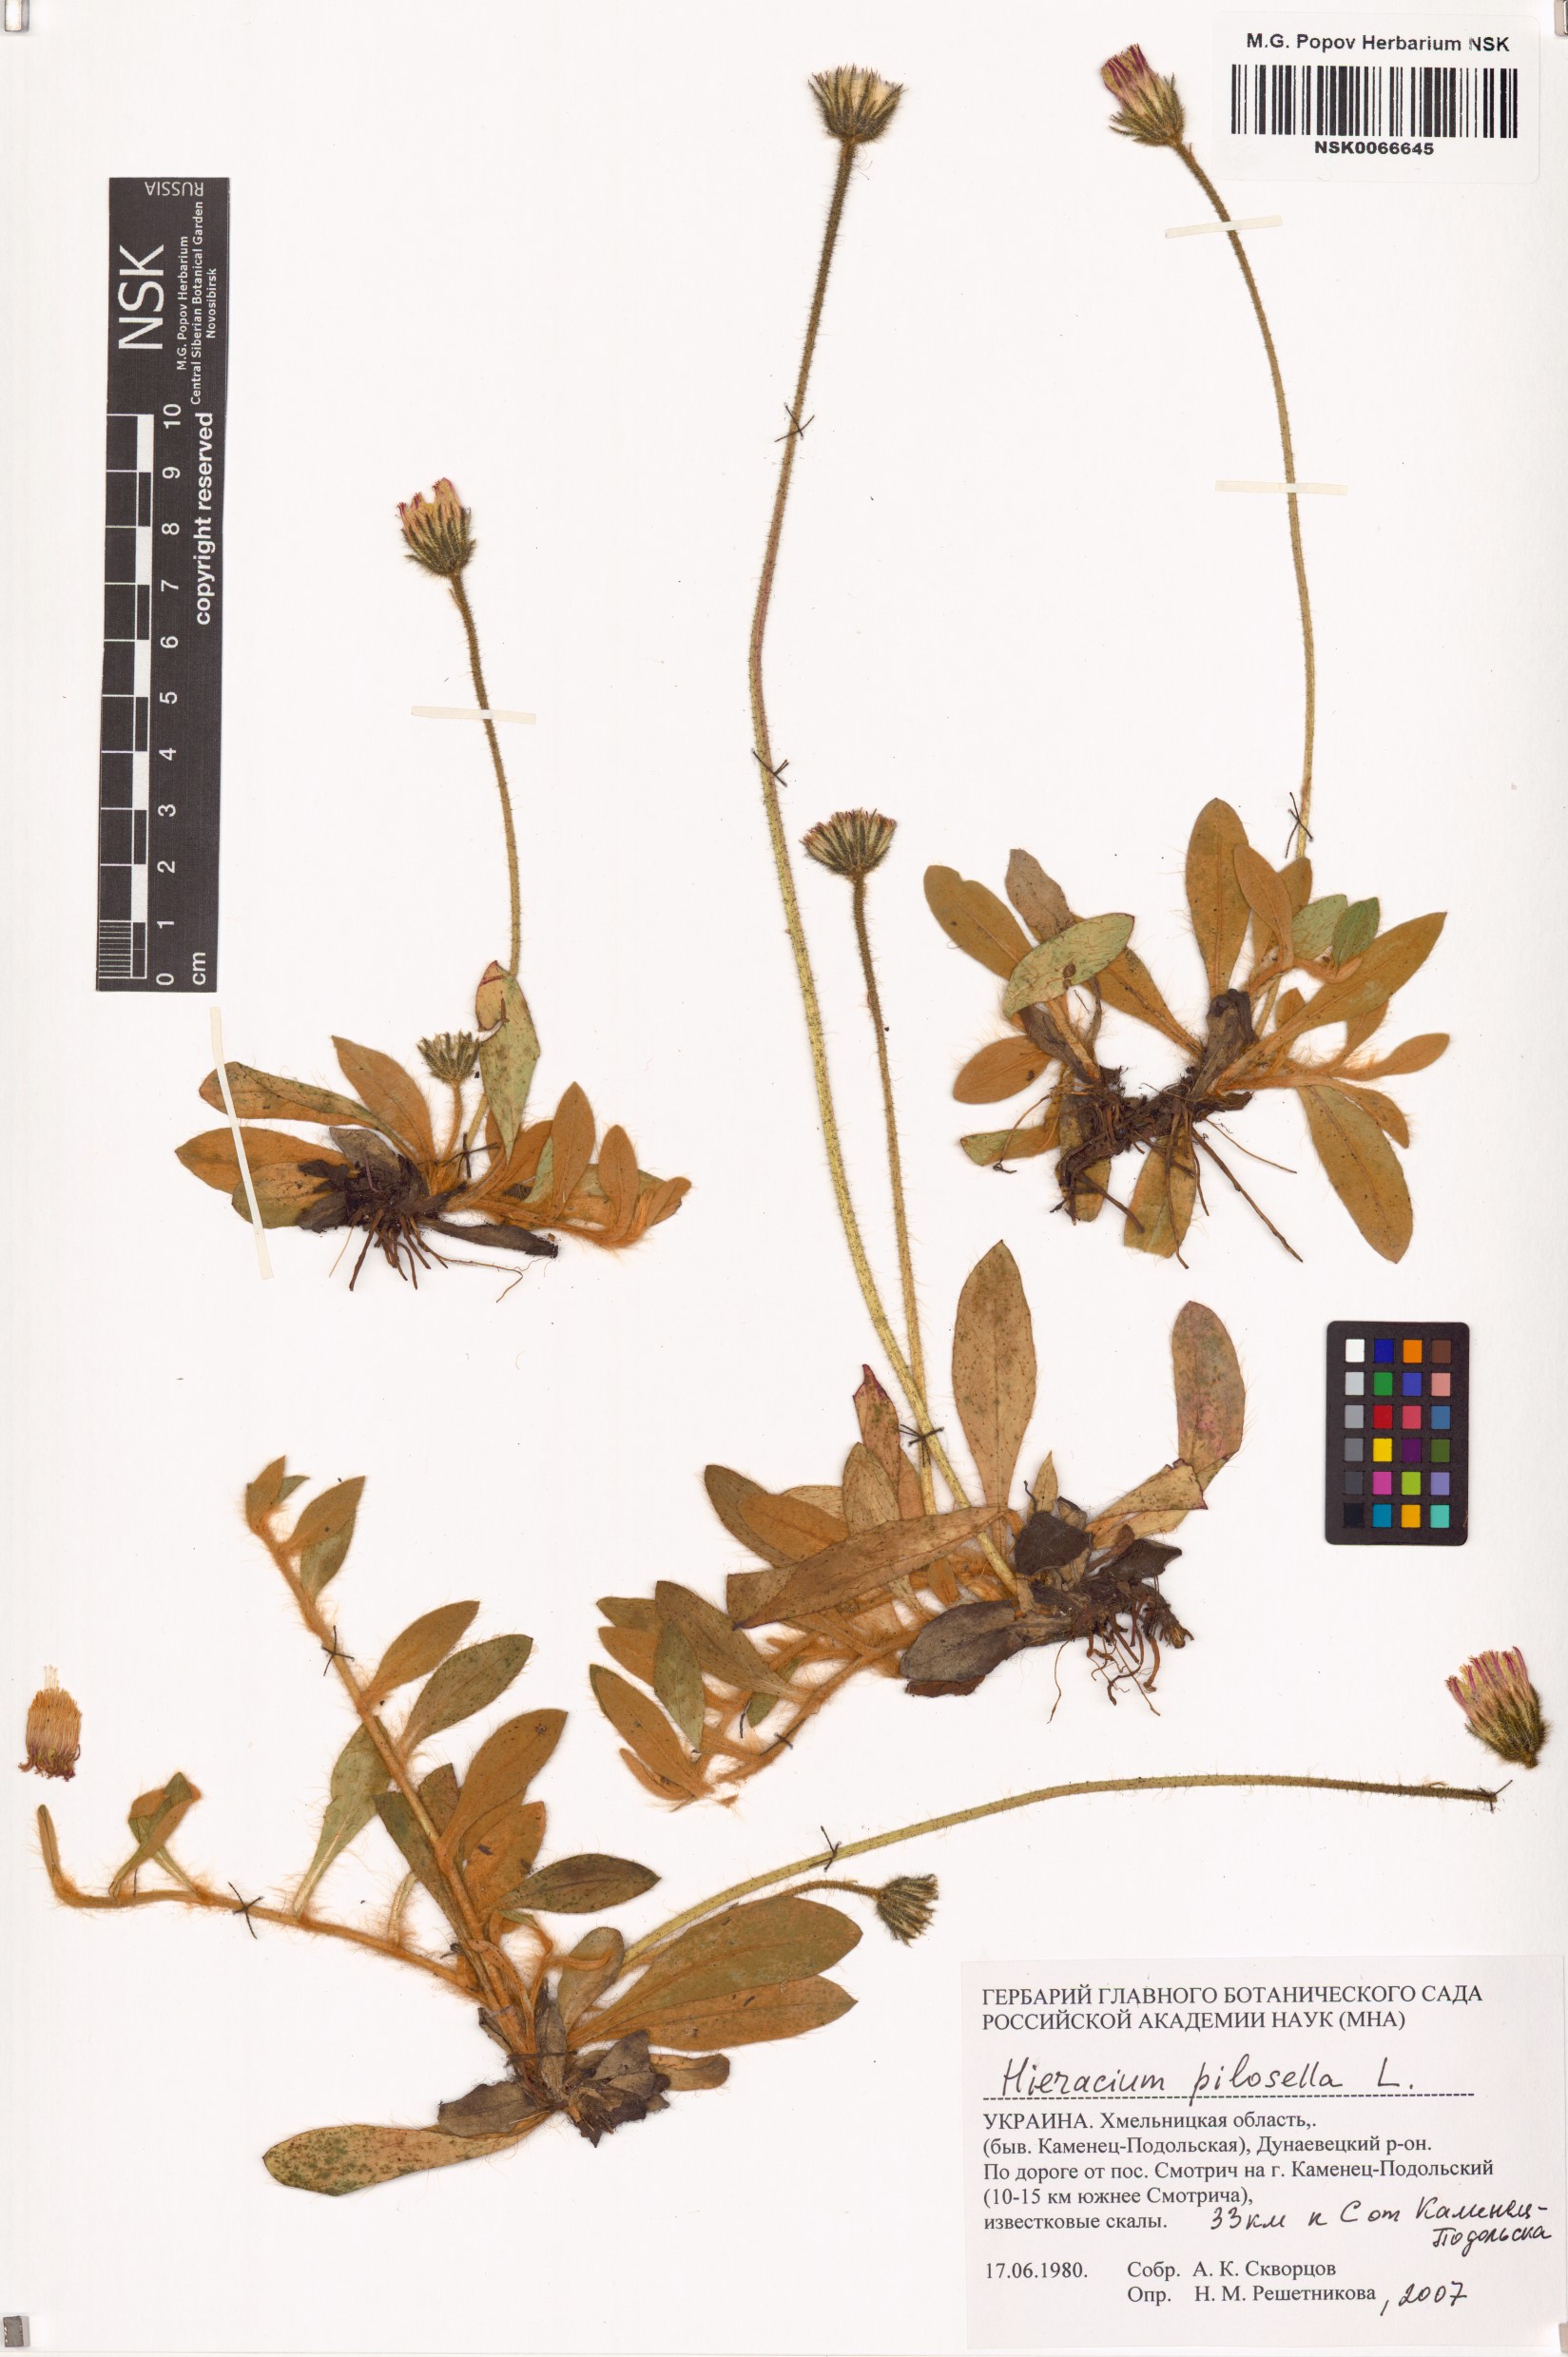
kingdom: Plantae
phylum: Tracheophyta
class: Magnoliopsida
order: Asterales
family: Asteraceae
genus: Pilosella
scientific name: Pilosella officinarum
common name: Mouse-ear hawkweed
